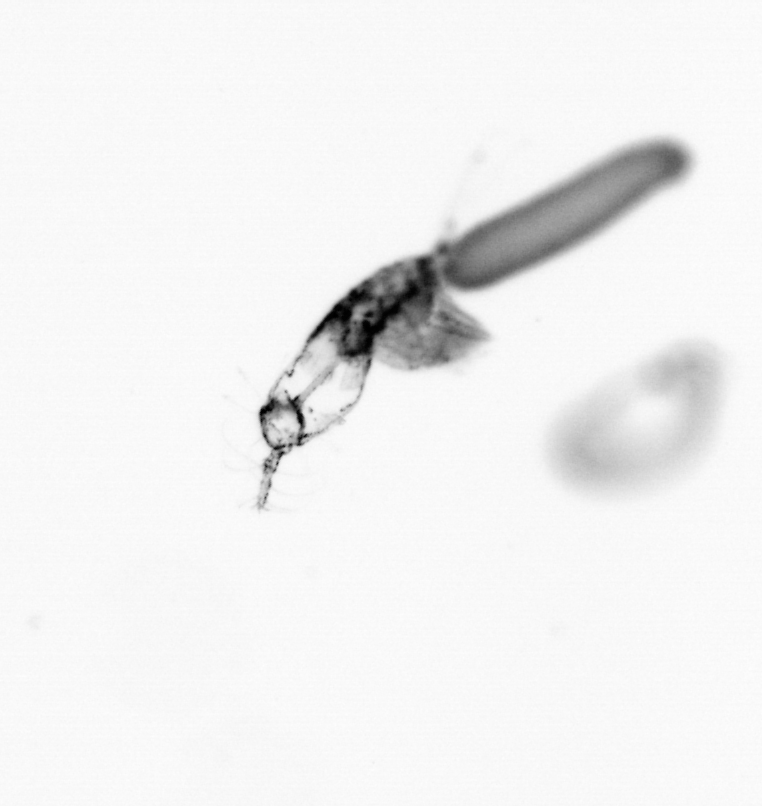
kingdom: Animalia
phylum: Arthropoda
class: Copepoda
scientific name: Copepoda
